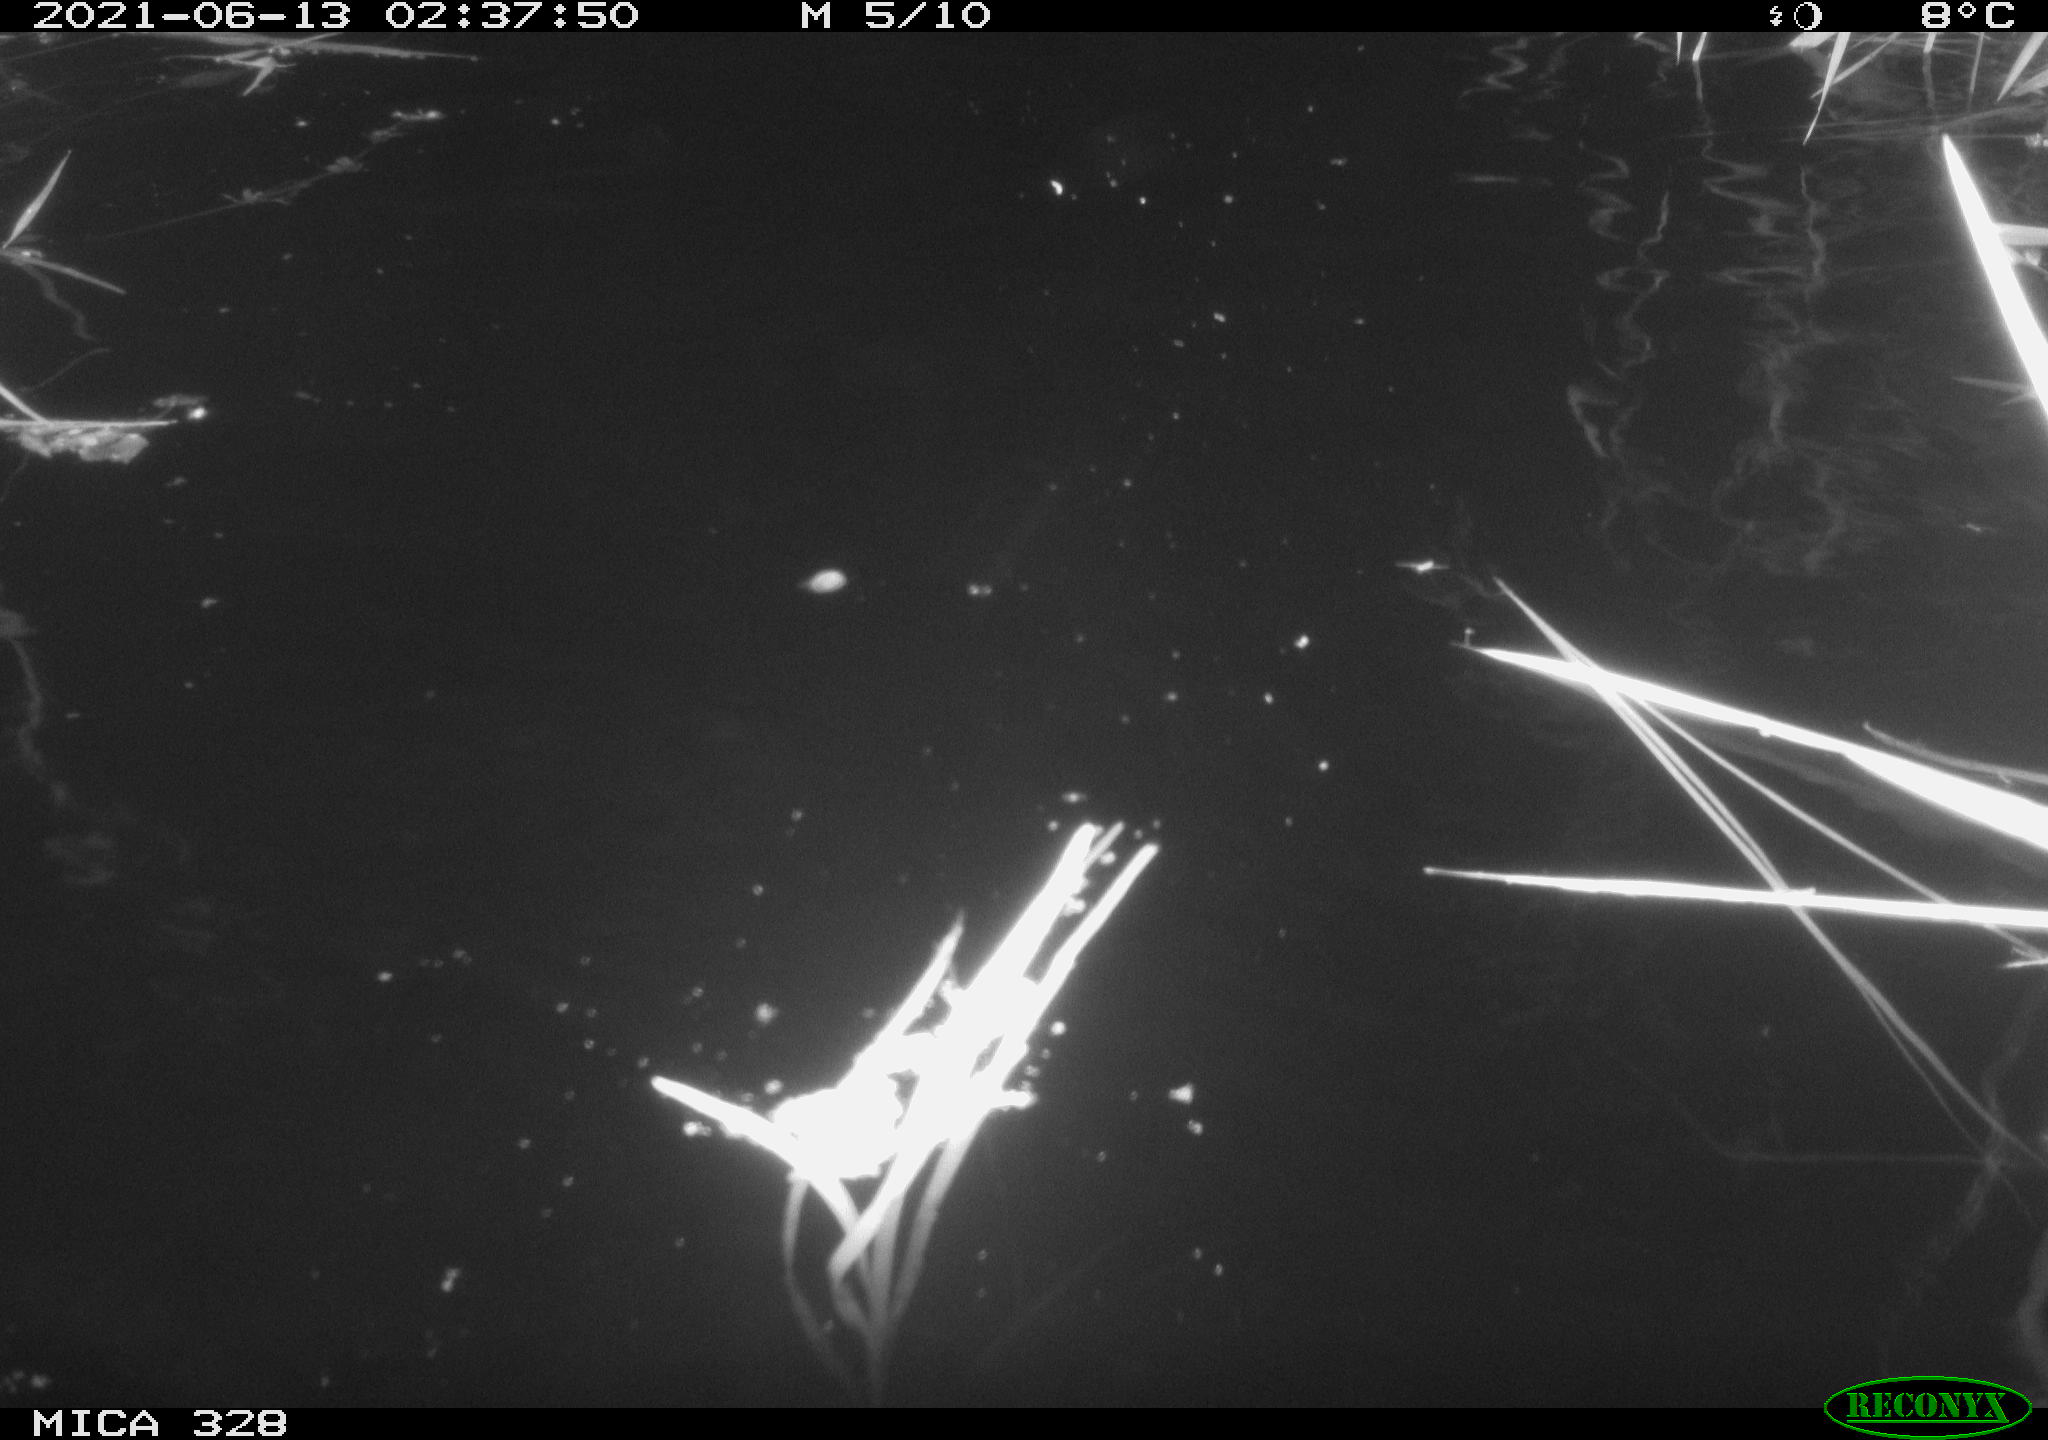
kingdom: Animalia
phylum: Chordata
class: Mammalia
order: Rodentia
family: Cricetidae
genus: Ondatra
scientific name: Ondatra zibethicus
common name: Muskrat
